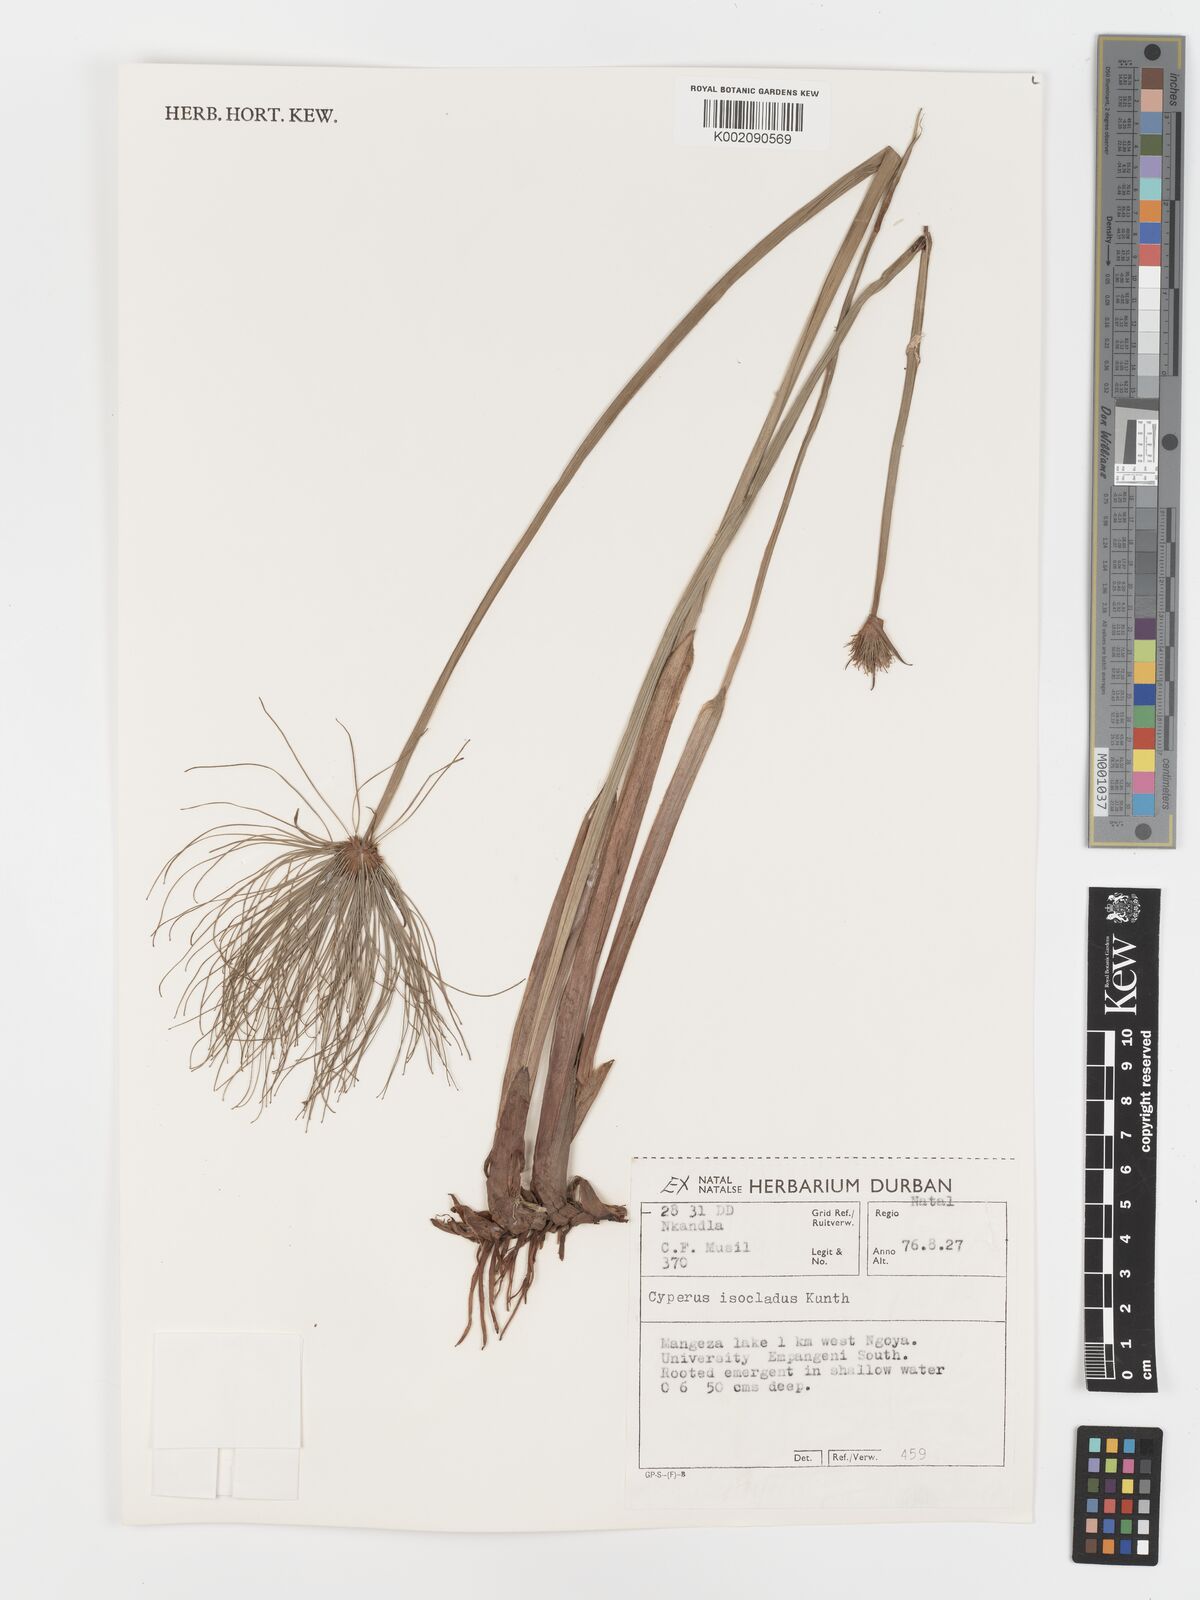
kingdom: Plantae
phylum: Tracheophyta
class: Liliopsida
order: Poales
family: Cyperaceae
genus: Cyperus
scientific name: Cyperus prolifer
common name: Miniature flatsedge
